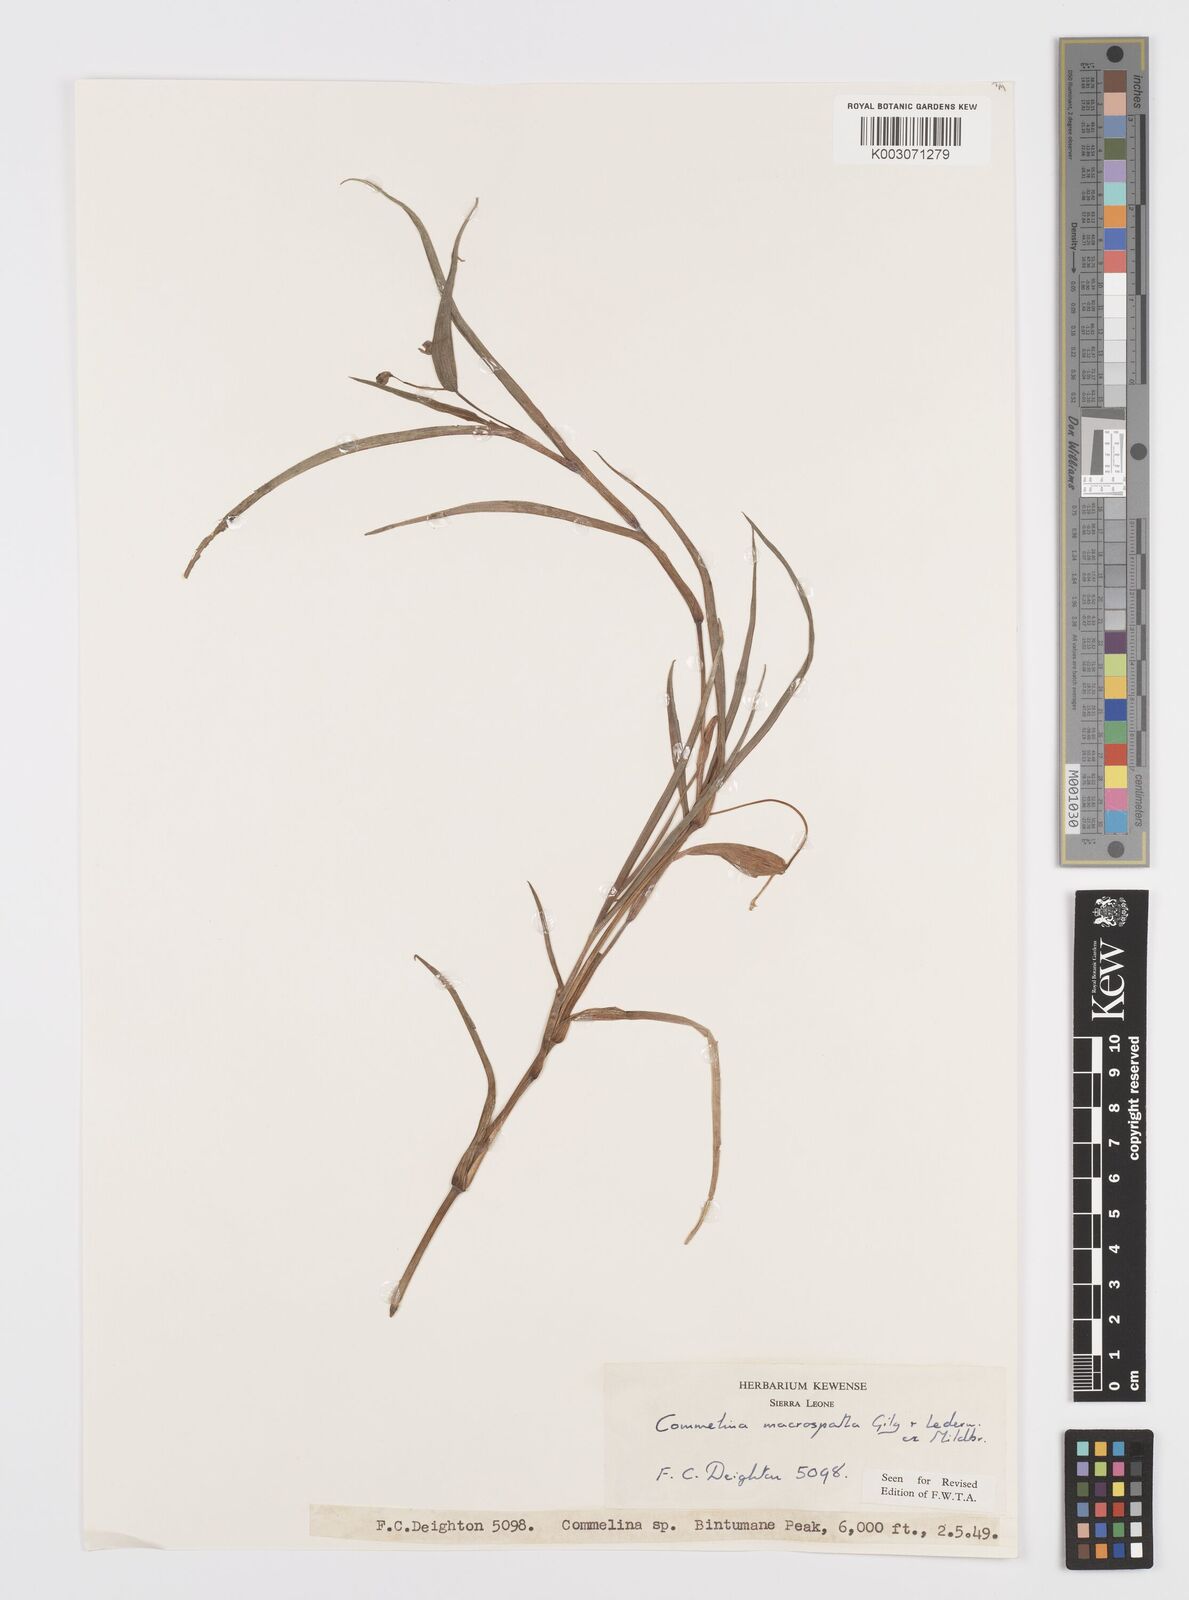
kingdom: Plantae
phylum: Tracheophyta
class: Liliopsida
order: Commelinales
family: Commelinaceae
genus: Commelina
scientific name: Commelina macrospatha
